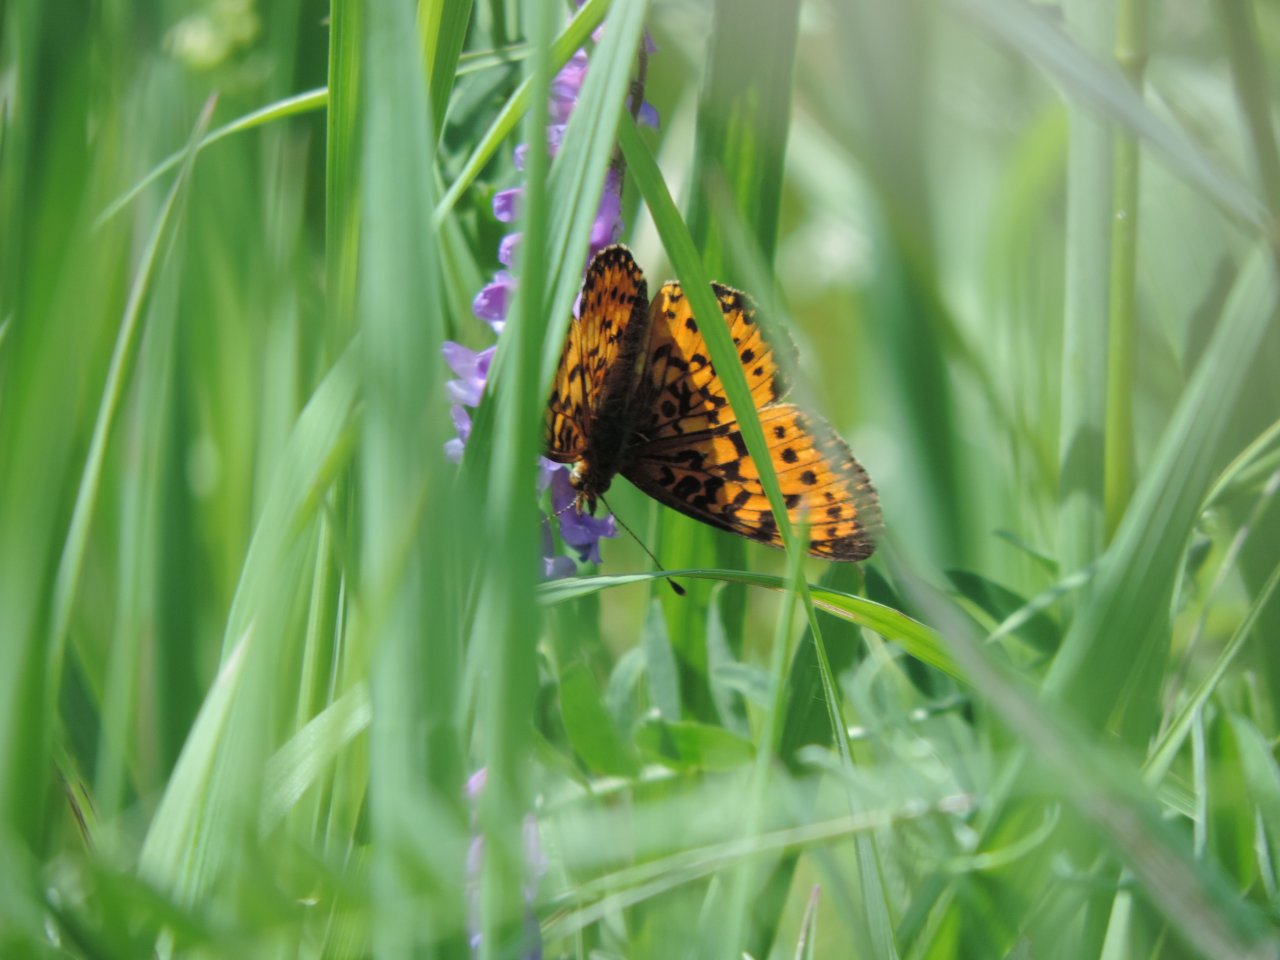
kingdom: Animalia
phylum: Arthropoda
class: Insecta
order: Lepidoptera
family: Nymphalidae
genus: Boloria
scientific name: Boloria selene
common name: Silver-bordered Fritillary
